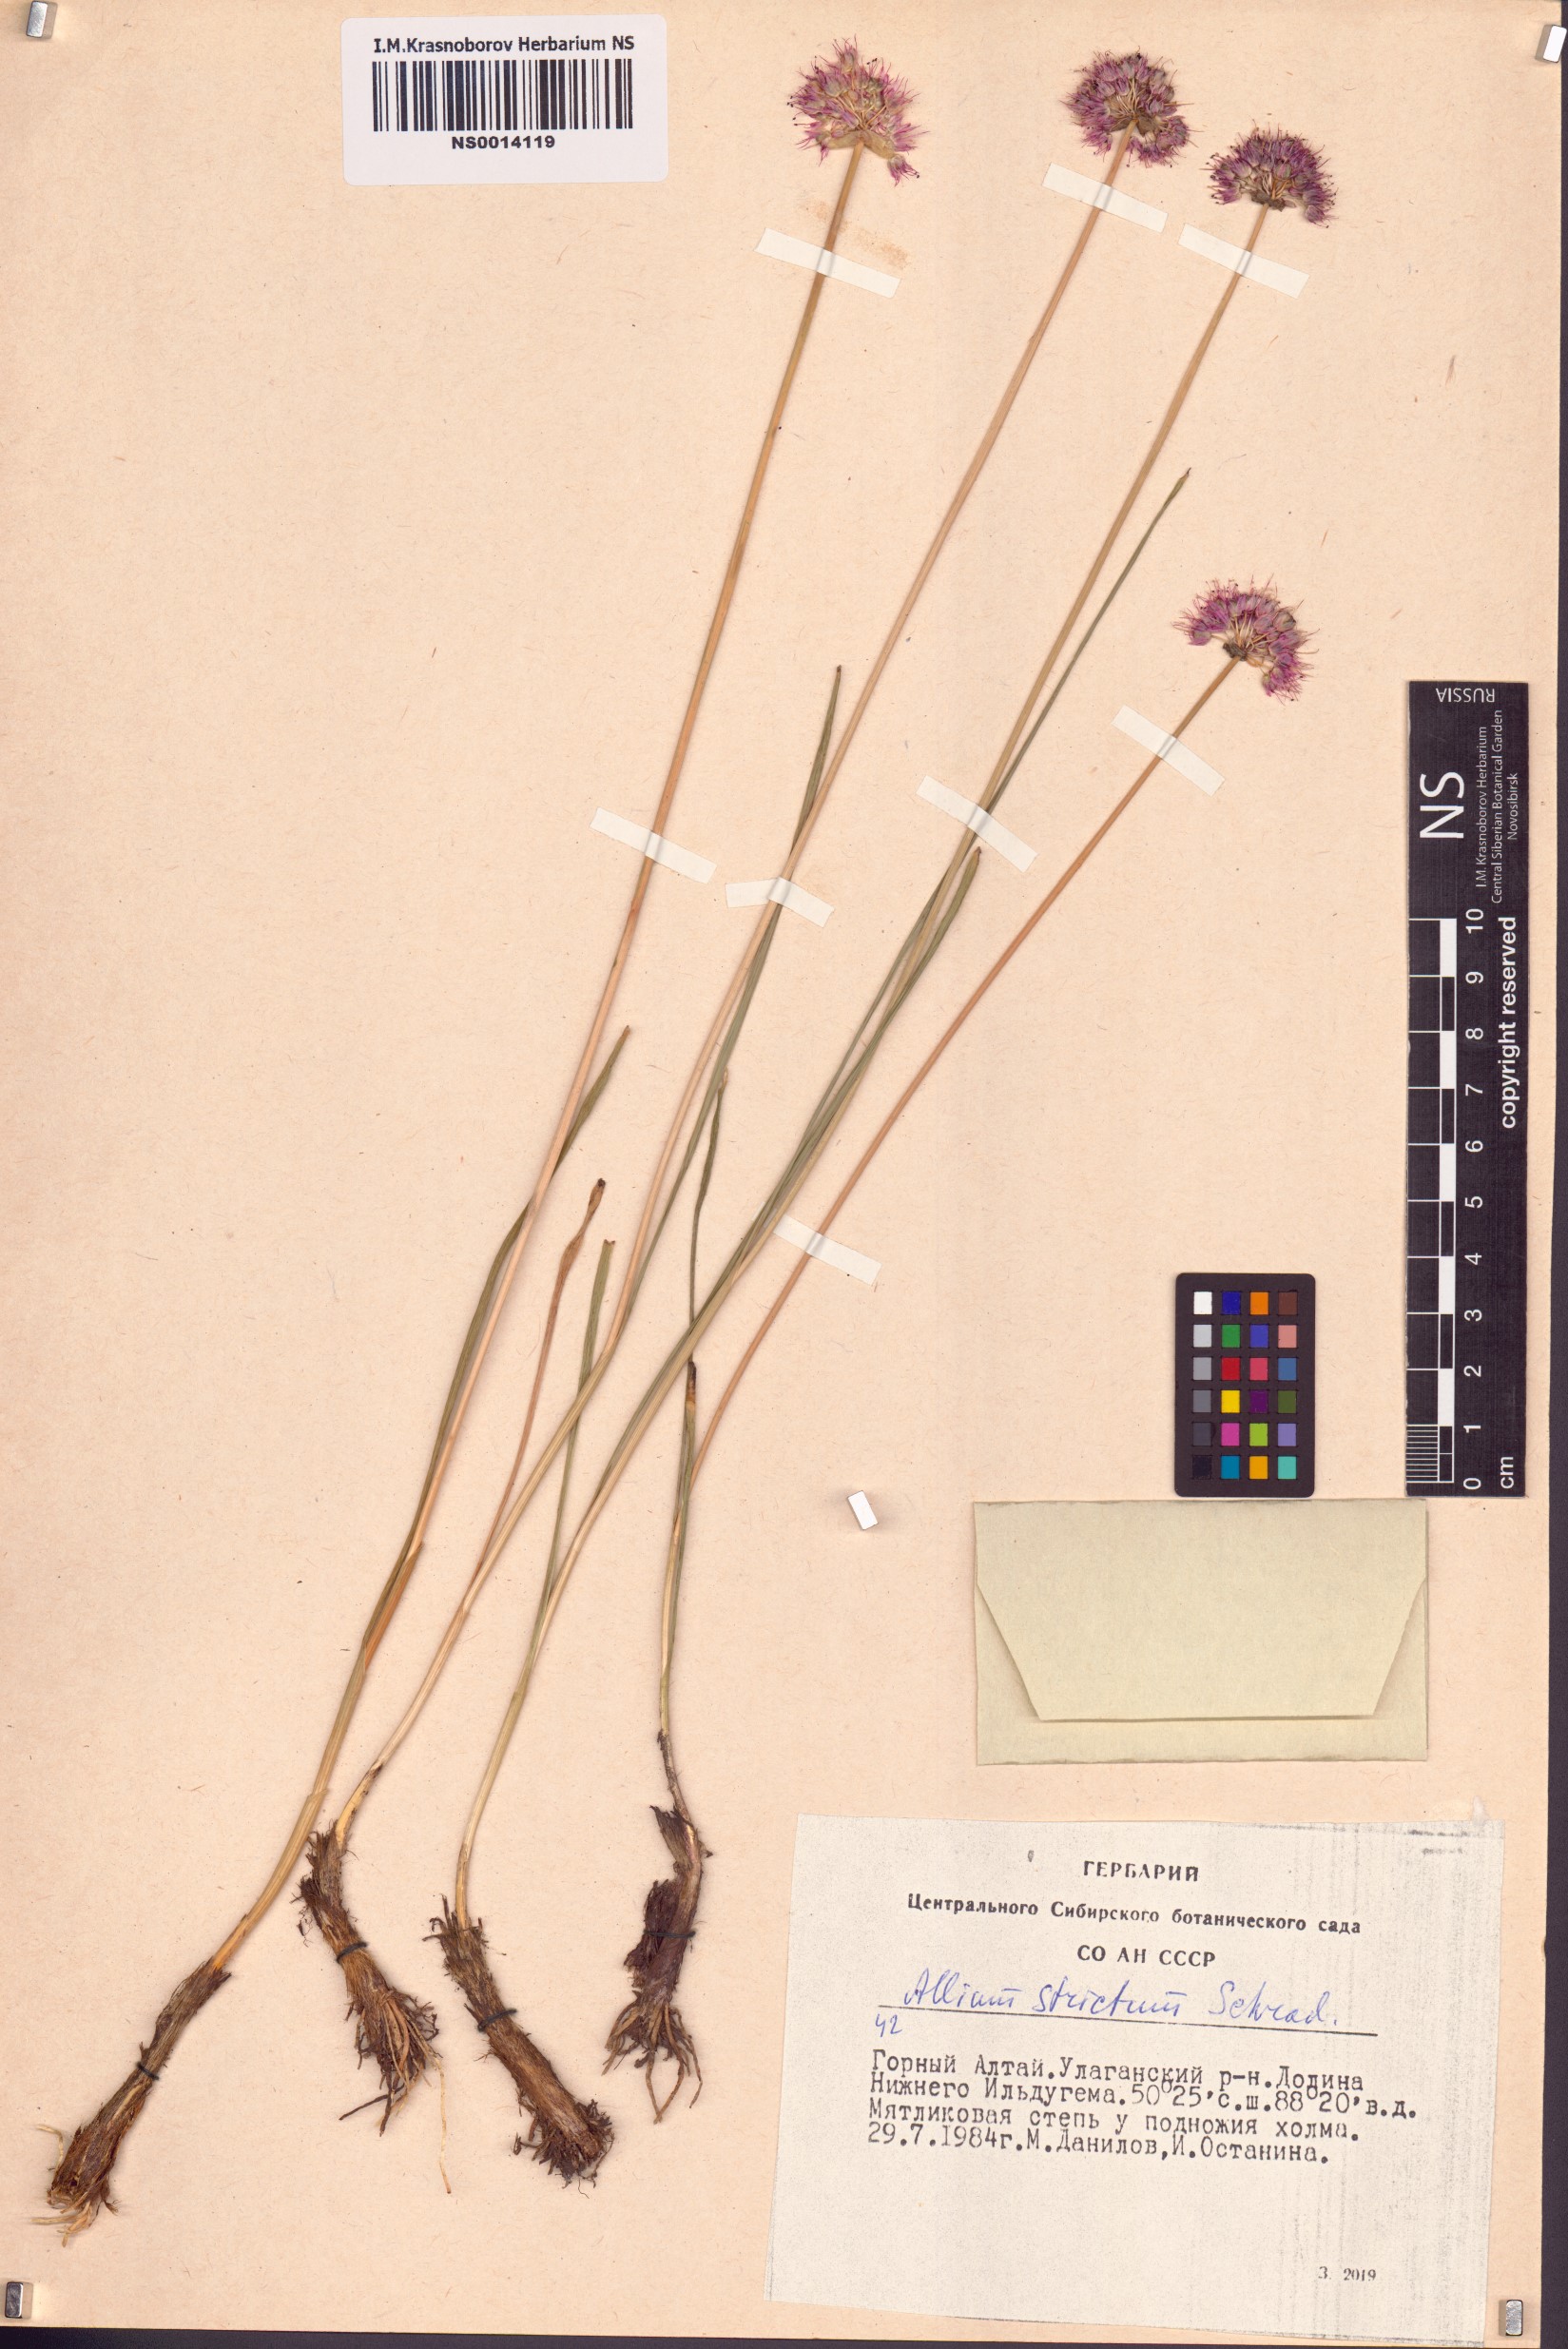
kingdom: Plantae
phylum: Tracheophyta
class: Liliopsida
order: Asparagales
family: Amaryllidaceae
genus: Allium
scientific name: Allium strictum
